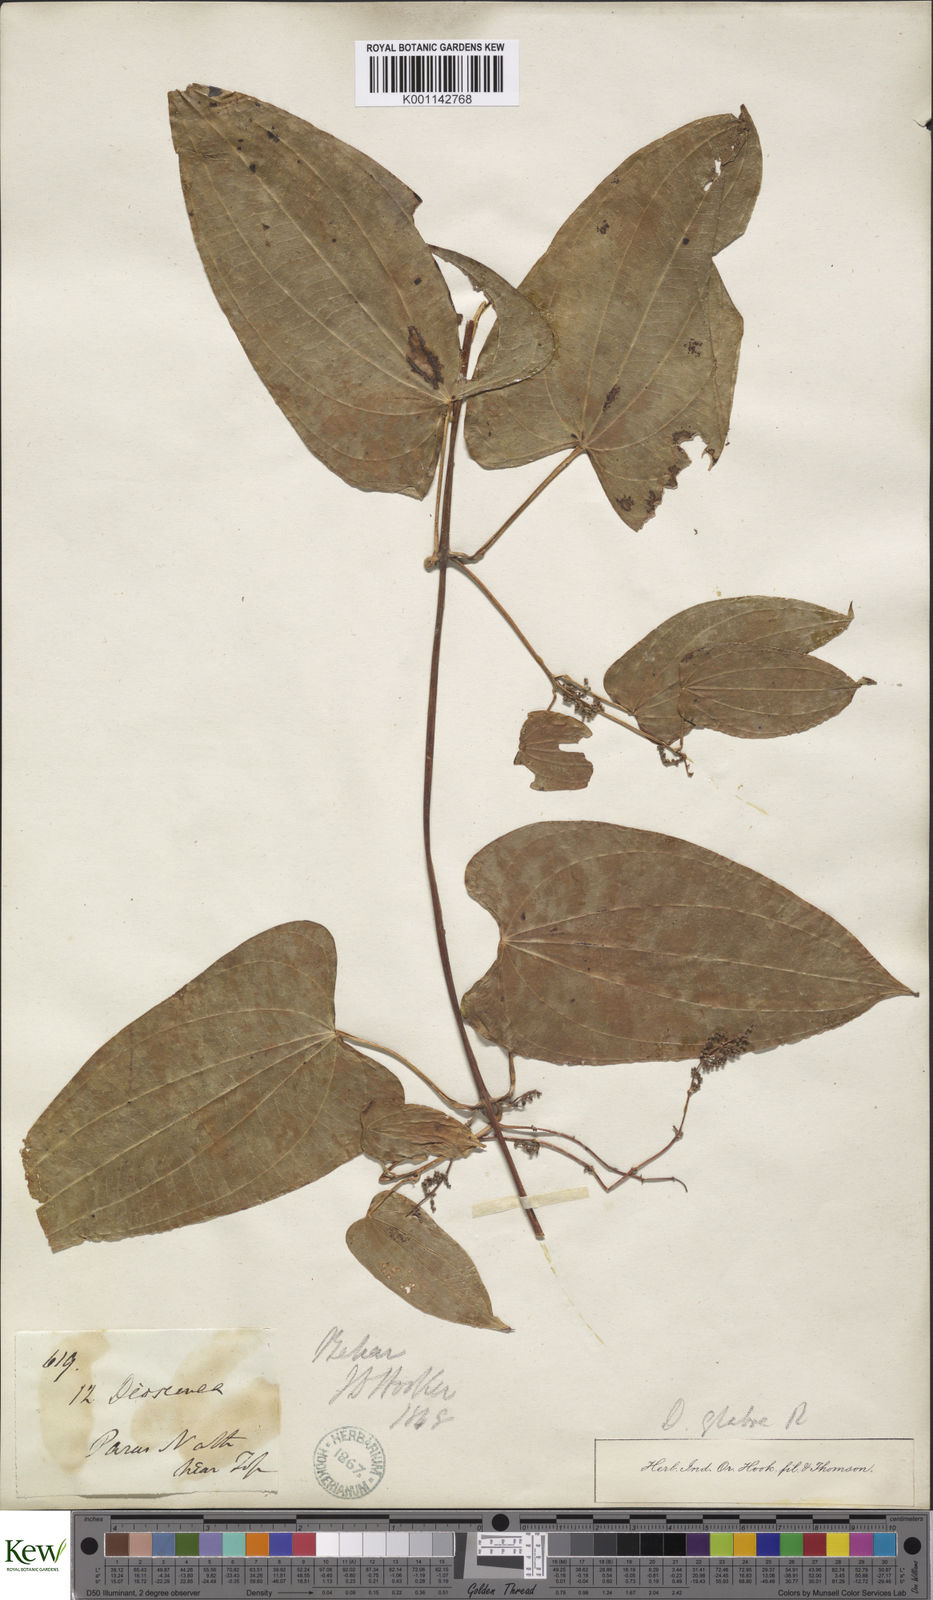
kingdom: Plantae
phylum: Tracheophyta
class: Liliopsida
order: Dioscoreales
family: Dioscoreaceae
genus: Dioscorea
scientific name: Dioscorea belophylla
